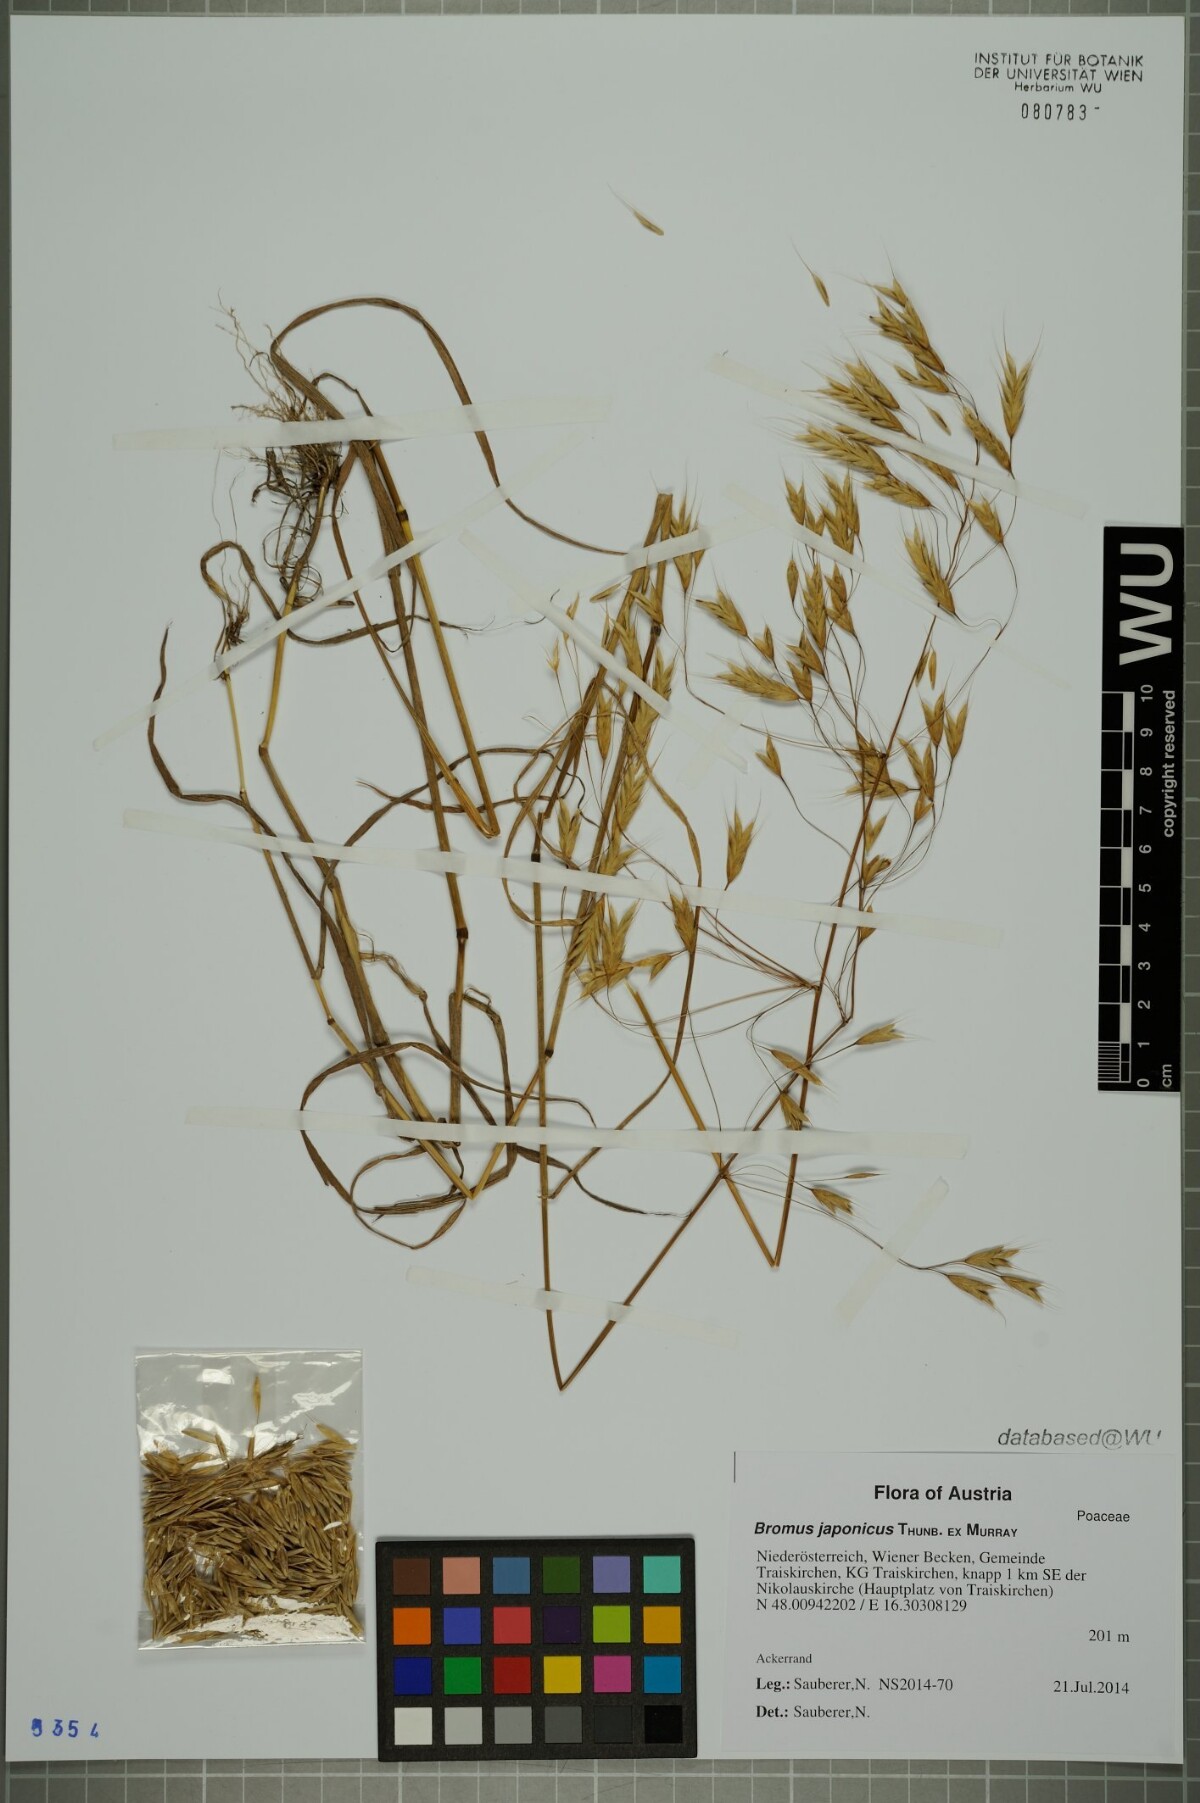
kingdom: Plantae
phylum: Tracheophyta
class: Liliopsida
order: Poales
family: Poaceae
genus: Bromus
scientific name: Bromus japonicus
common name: Japanese brome
